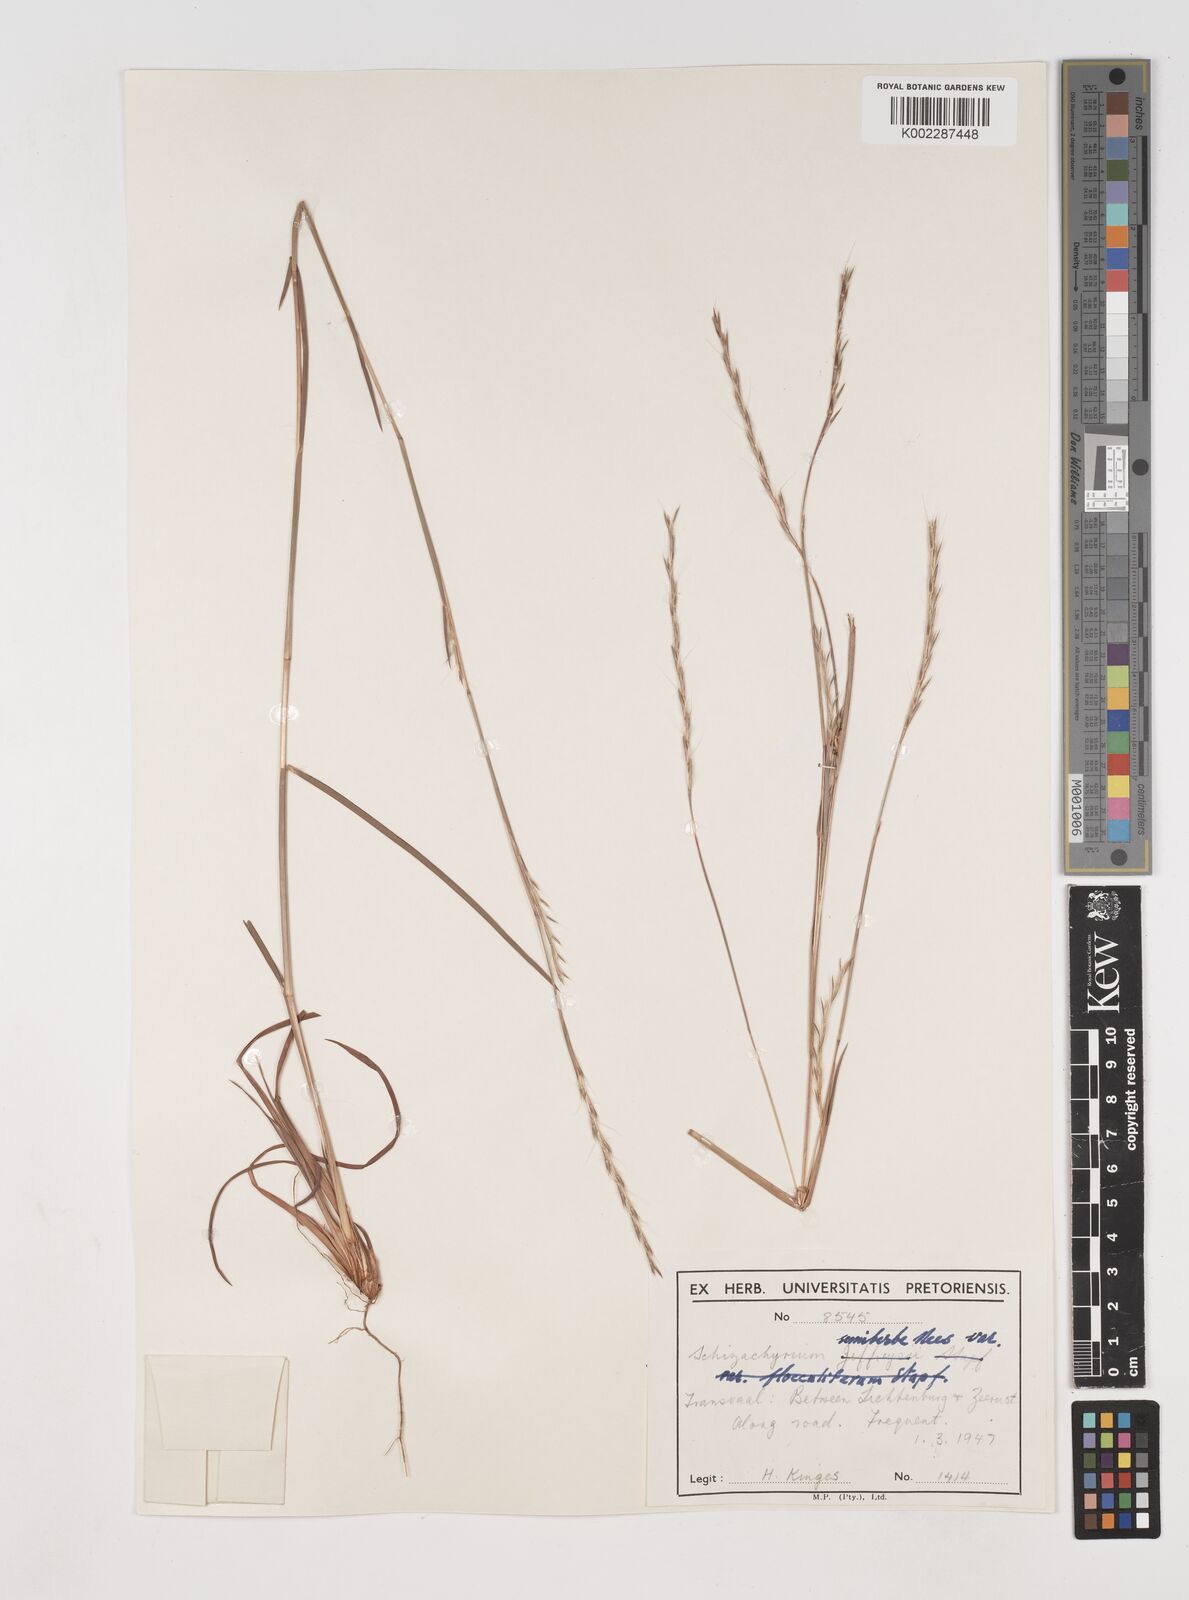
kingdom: Plantae
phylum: Tracheophyta
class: Liliopsida
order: Poales
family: Poaceae
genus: Schizachyrium
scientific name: Schizachyrium sanguineum
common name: Crimson bluestem
